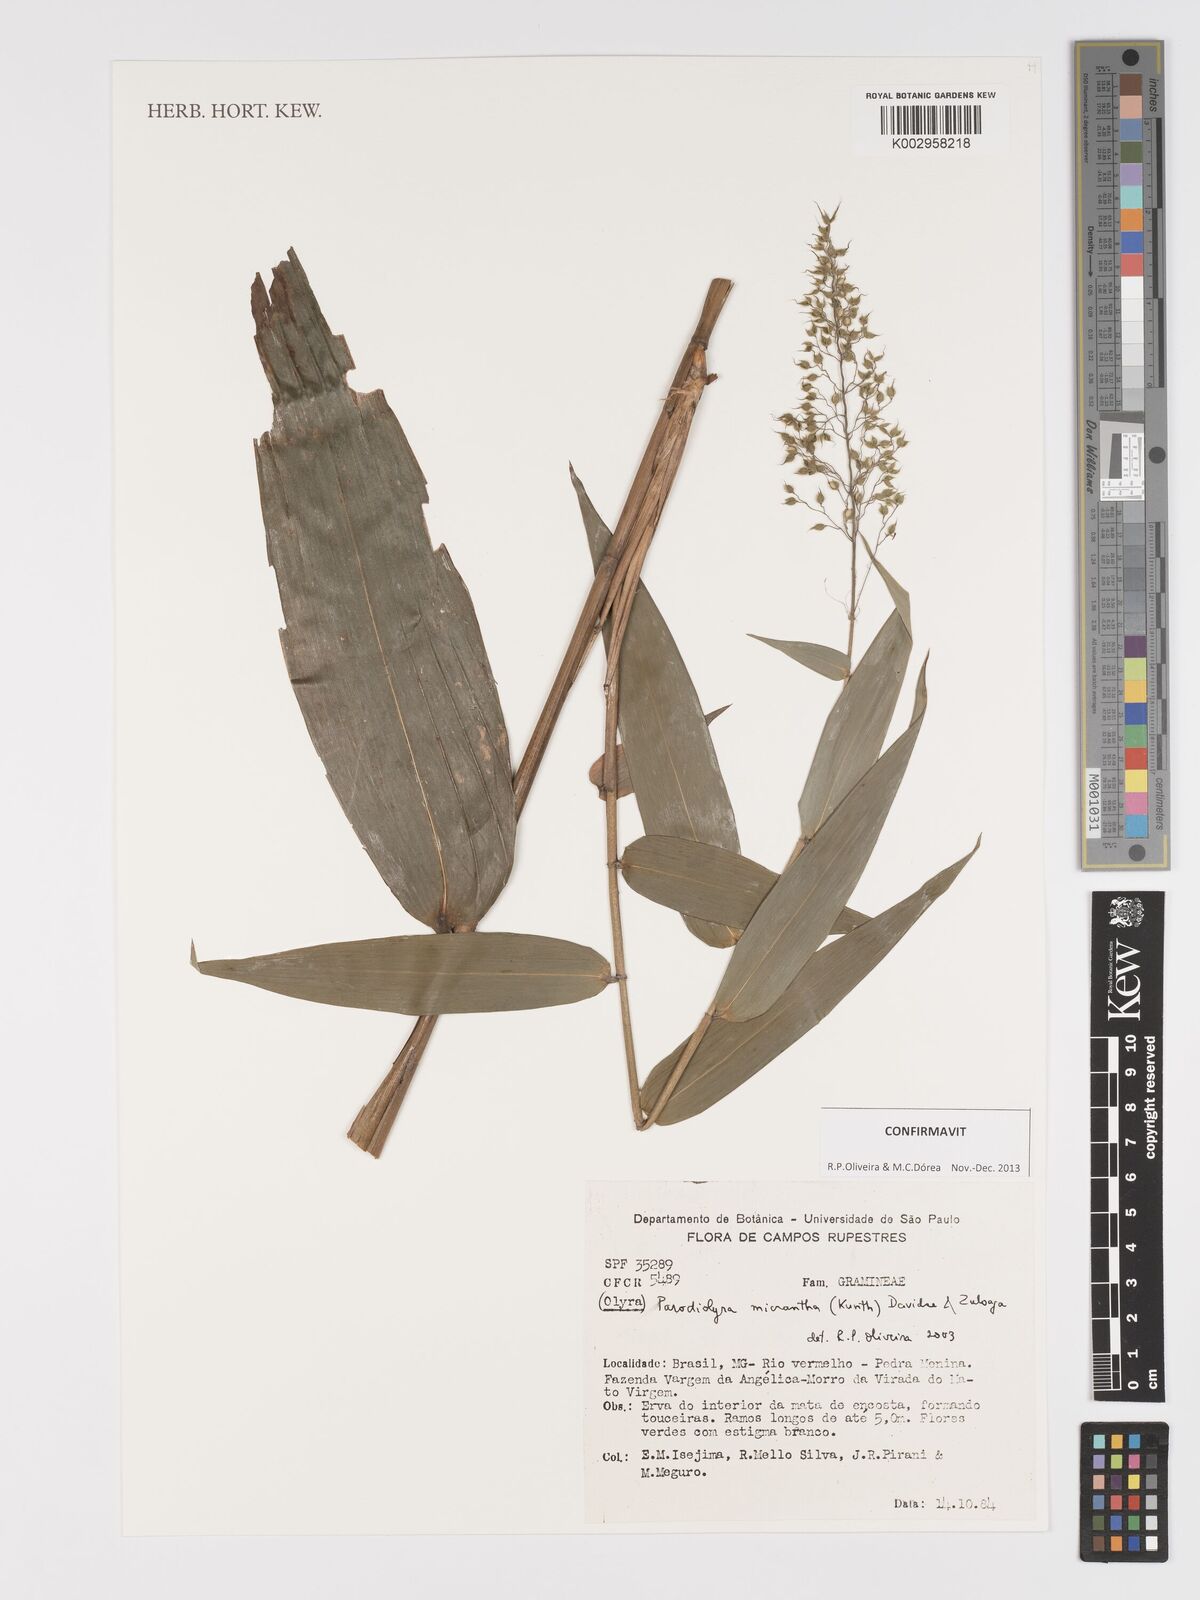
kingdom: Plantae
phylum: Tracheophyta
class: Liliopsida
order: Poales
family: Poaceae
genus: Taquara
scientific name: Taquara micrantha
